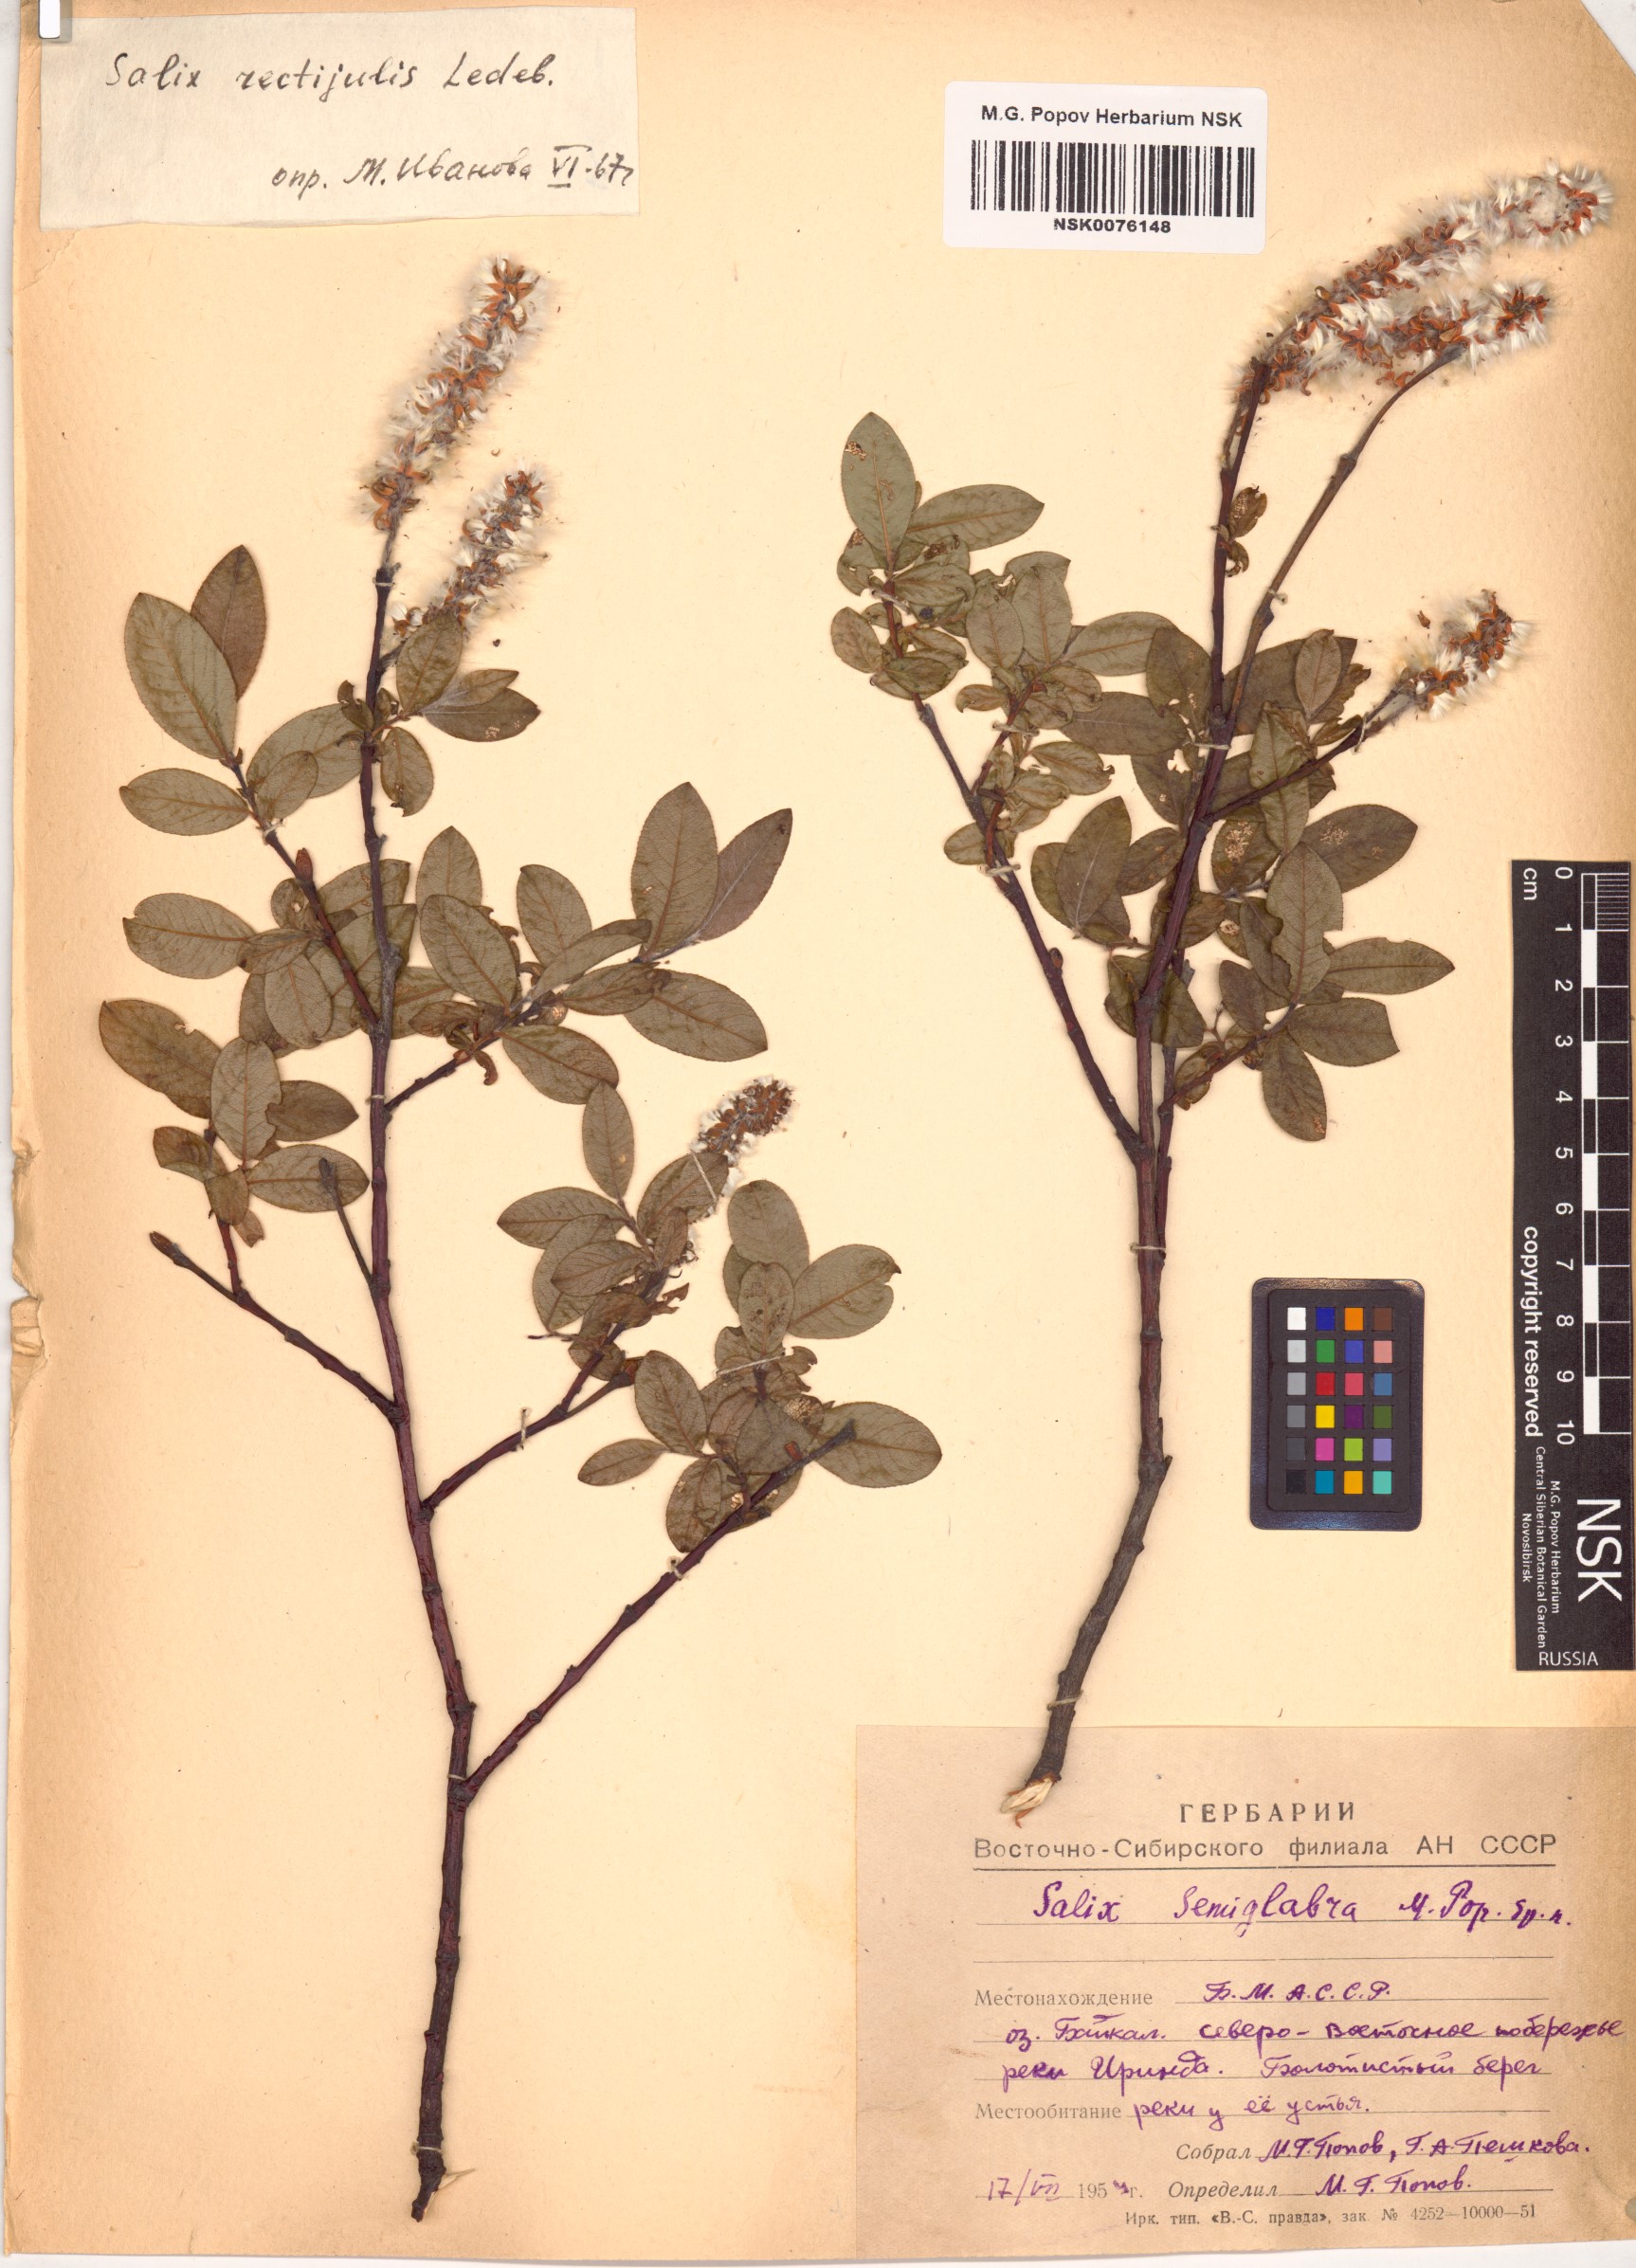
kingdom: Plantae
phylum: Tracheophyta
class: Magnoliopsida
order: Malpighiales
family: Salicaceae
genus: Salix
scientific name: Salix rectijulis
